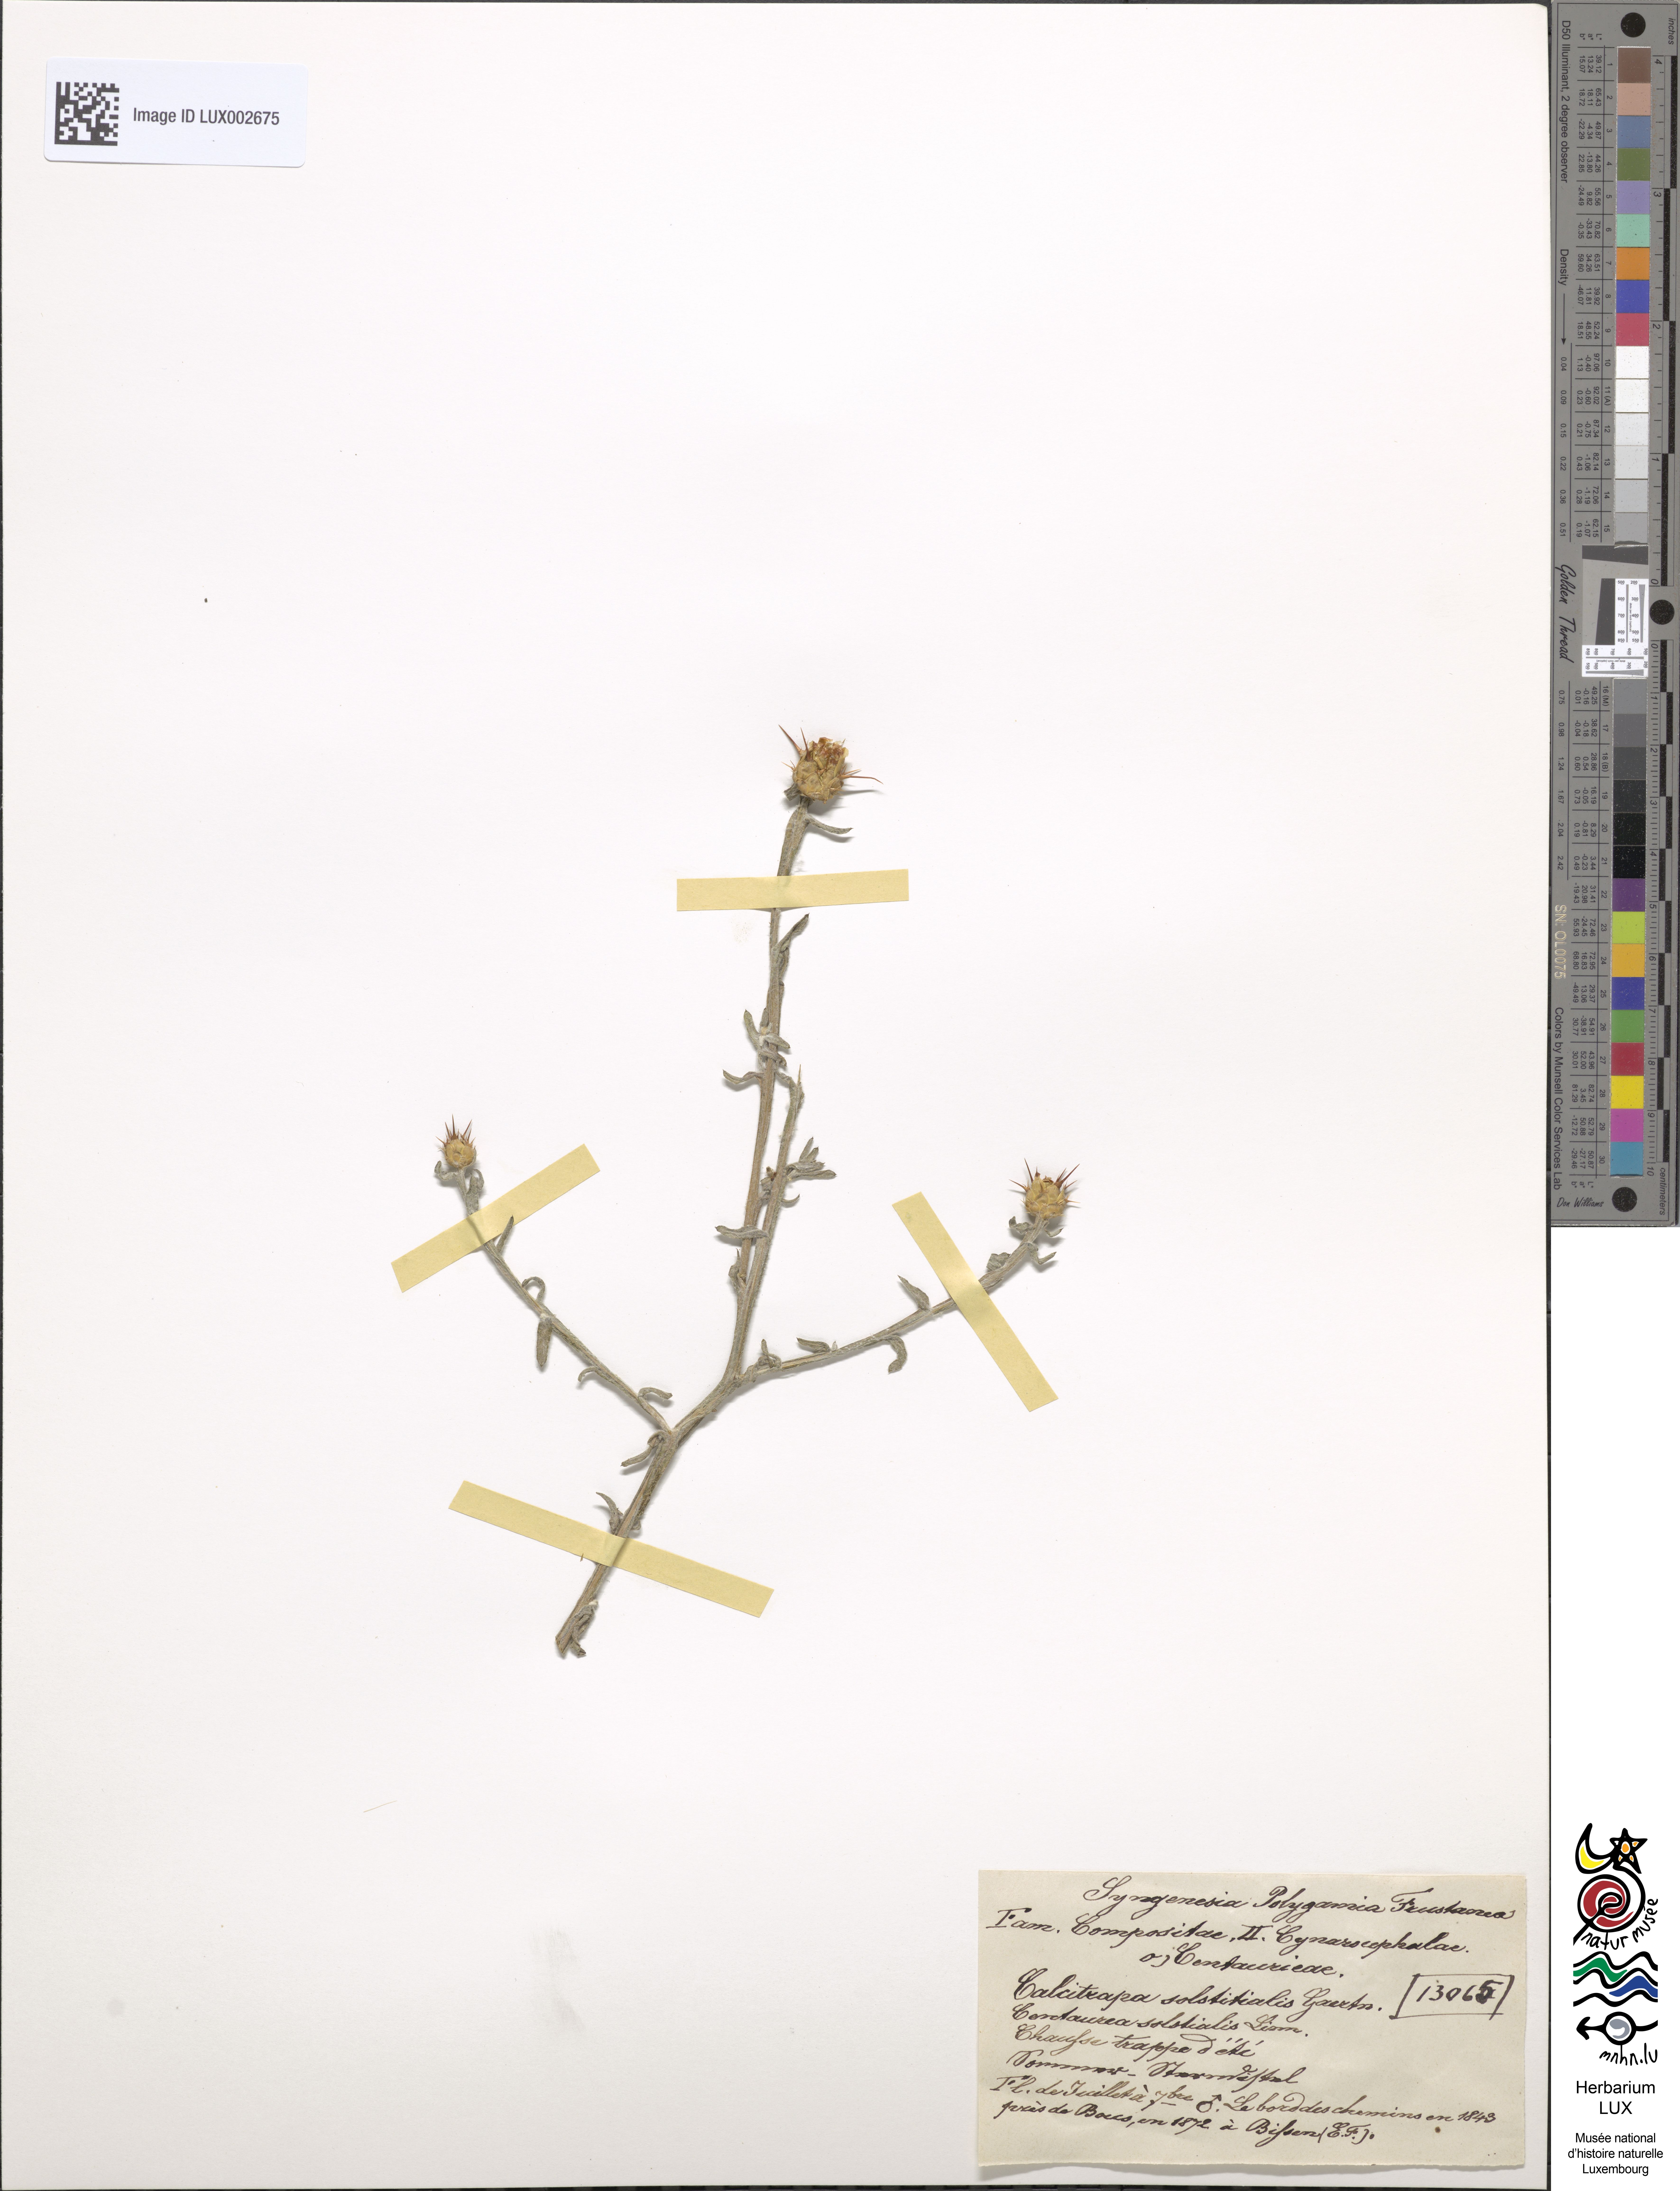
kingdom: Plantae
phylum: Tracheophyta
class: Magnoliopsida
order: Asterales
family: Asteraceae
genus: Centaurea
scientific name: Centaurea solstitialis
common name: Yellow star-thistle
